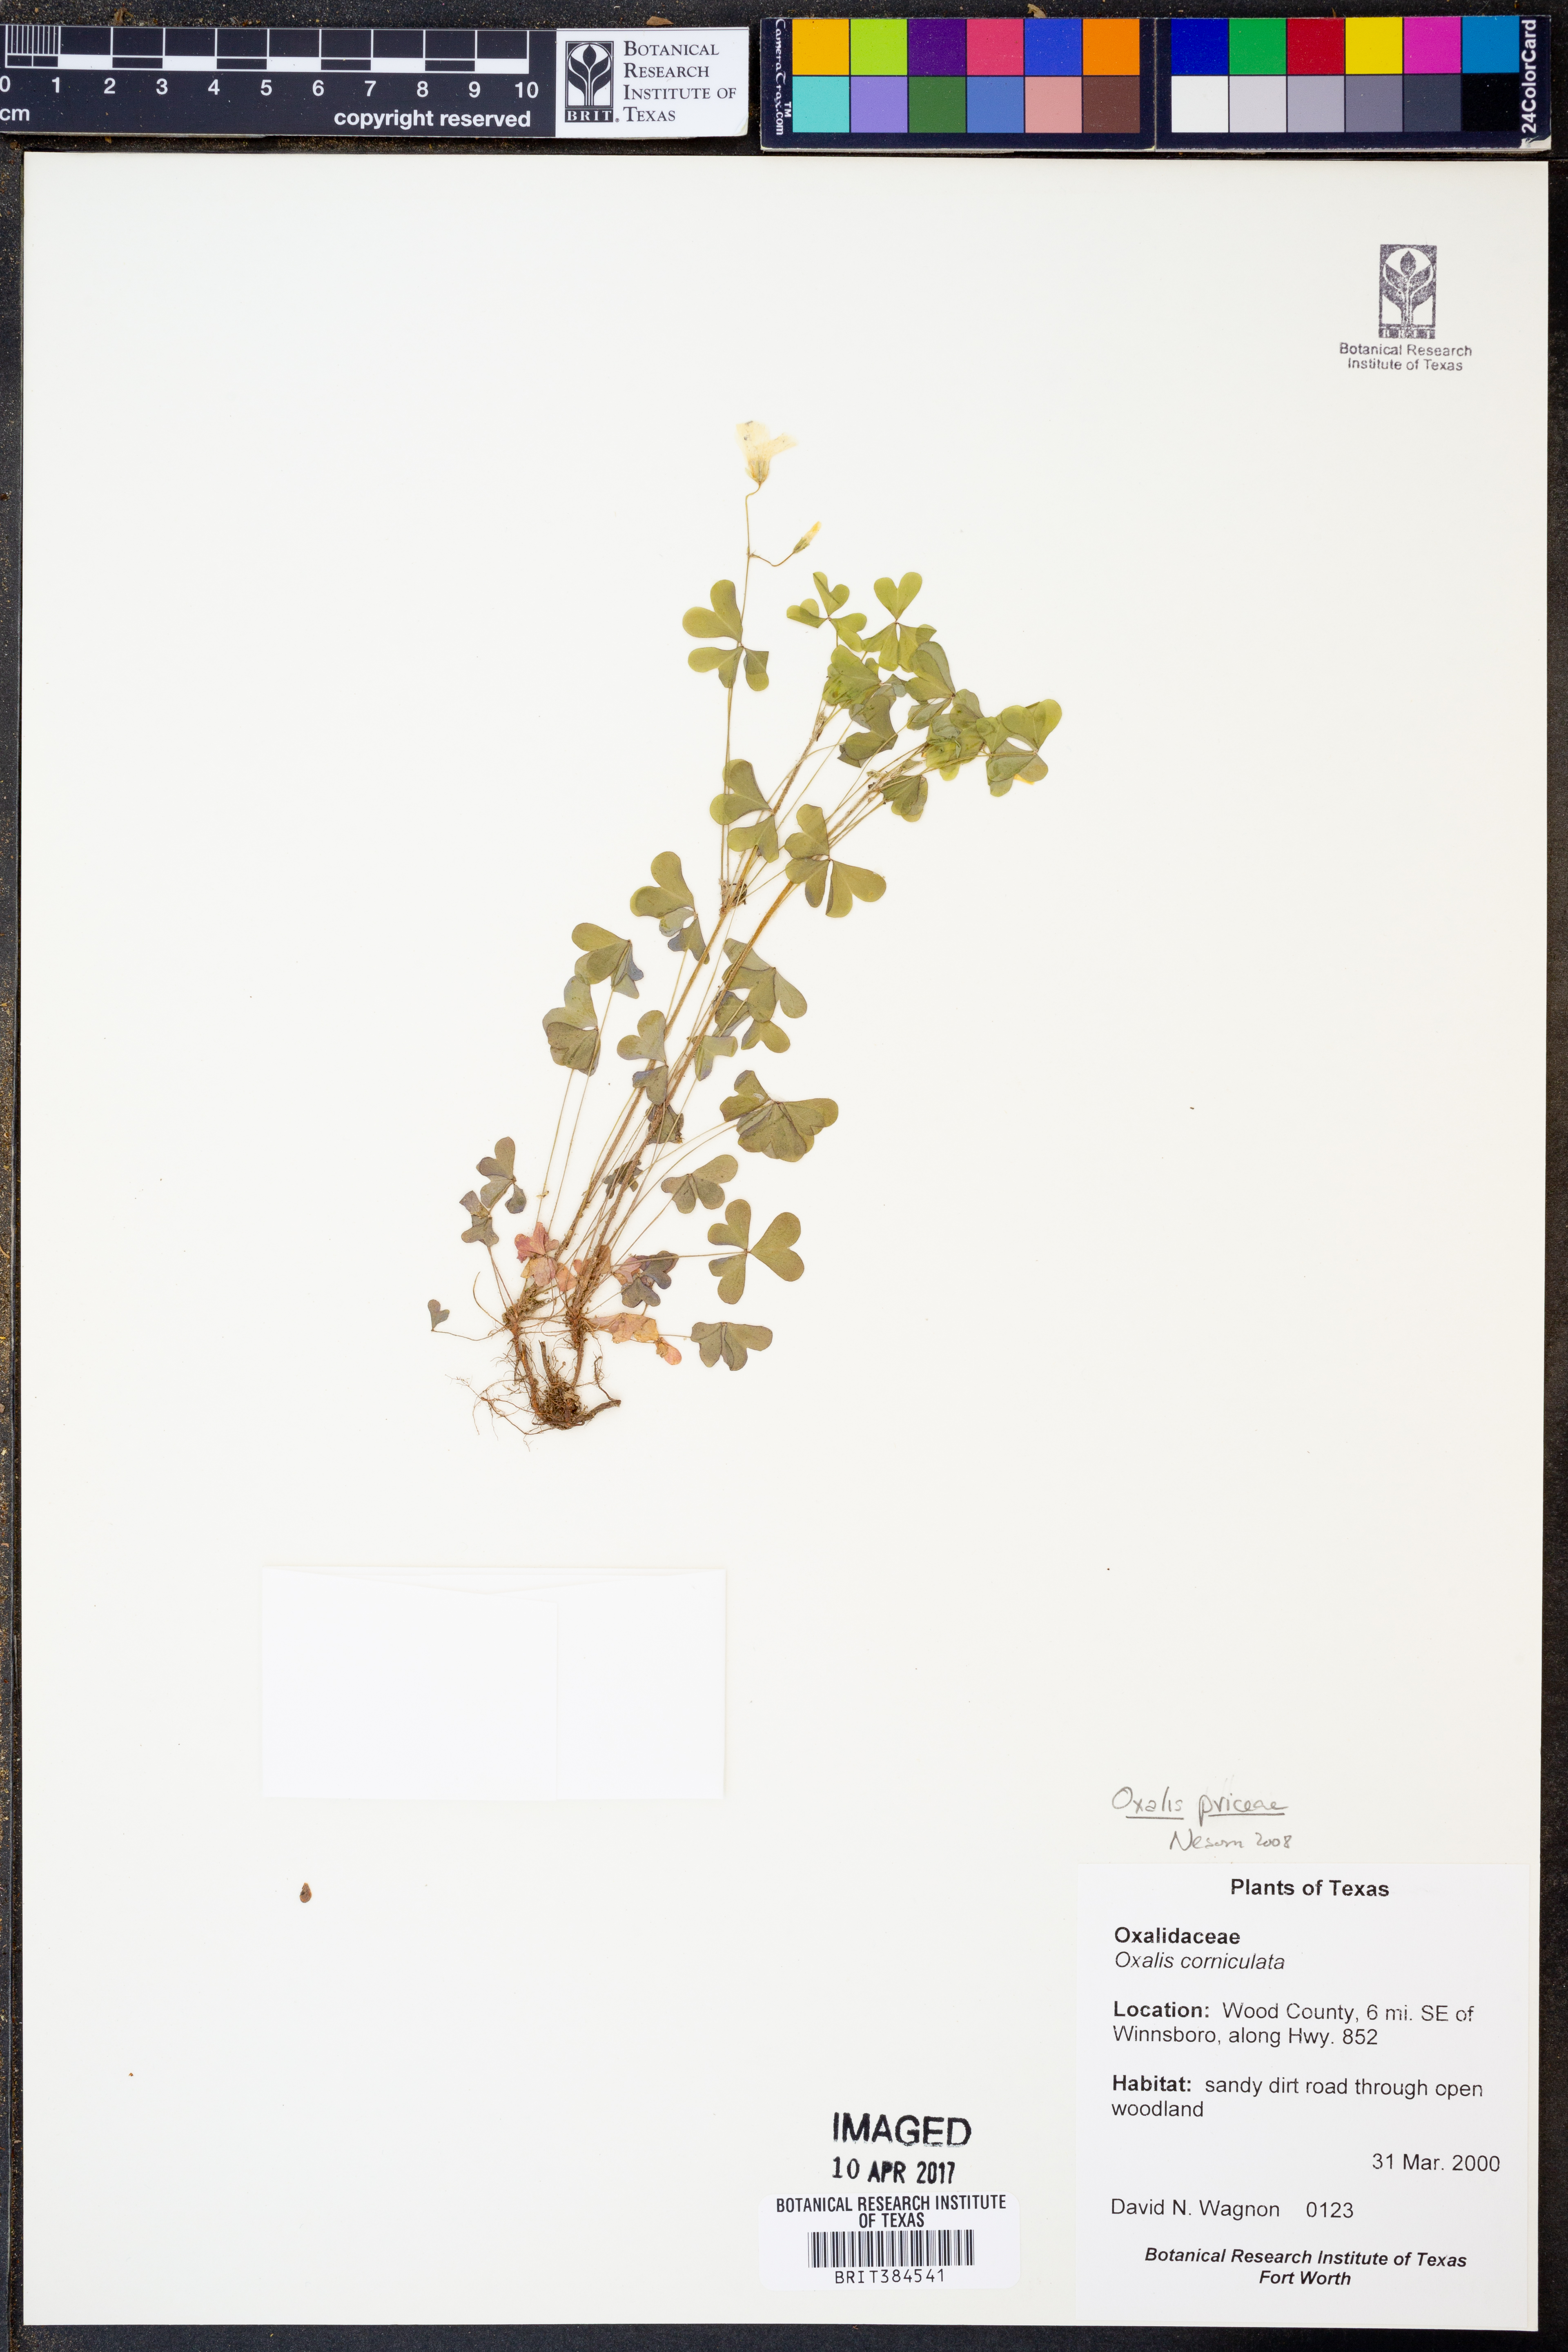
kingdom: Plantae
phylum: Tracheophyta
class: Magnoliopsida
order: Oxalidales
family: Oxalidaceae
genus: Oxalis
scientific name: Oxalis macrantha
